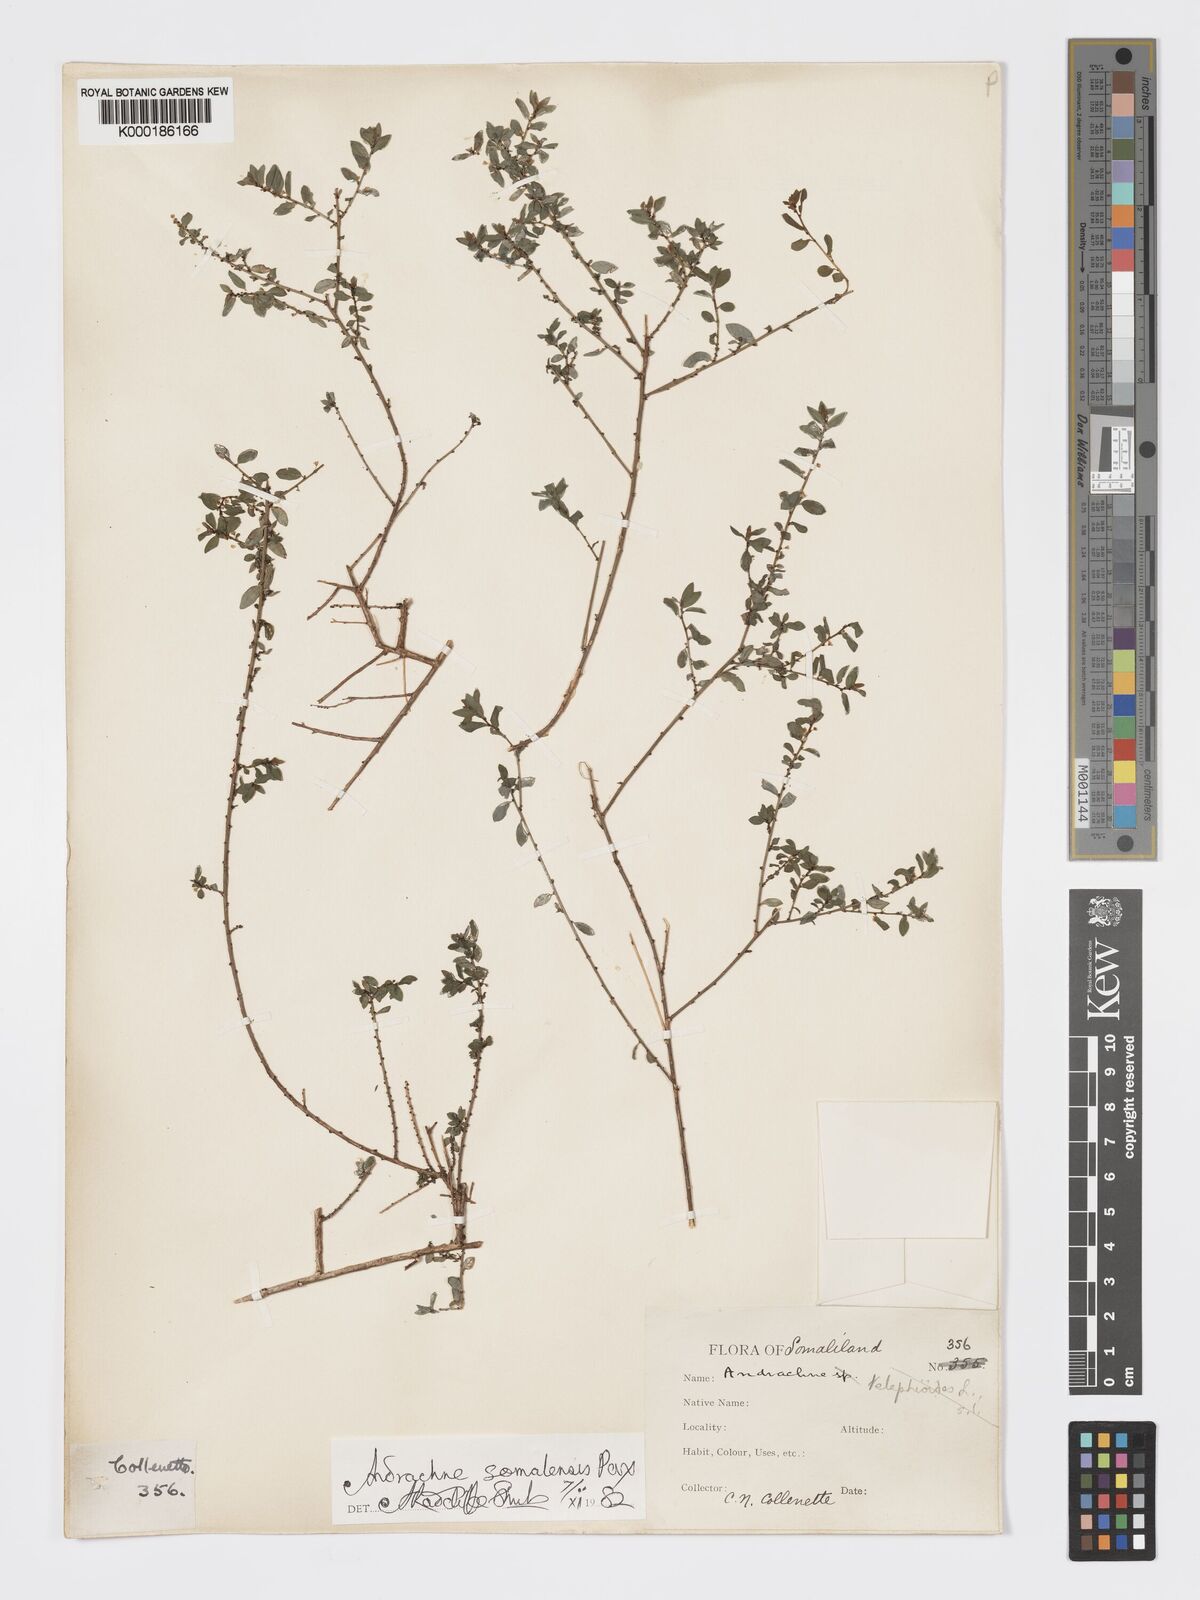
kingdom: Plantae
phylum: Tracheophyta
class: Magnoliopsida
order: Malpighiales
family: Phyllanthaceae
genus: Andrachne
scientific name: Andrachne schweinfurthii
